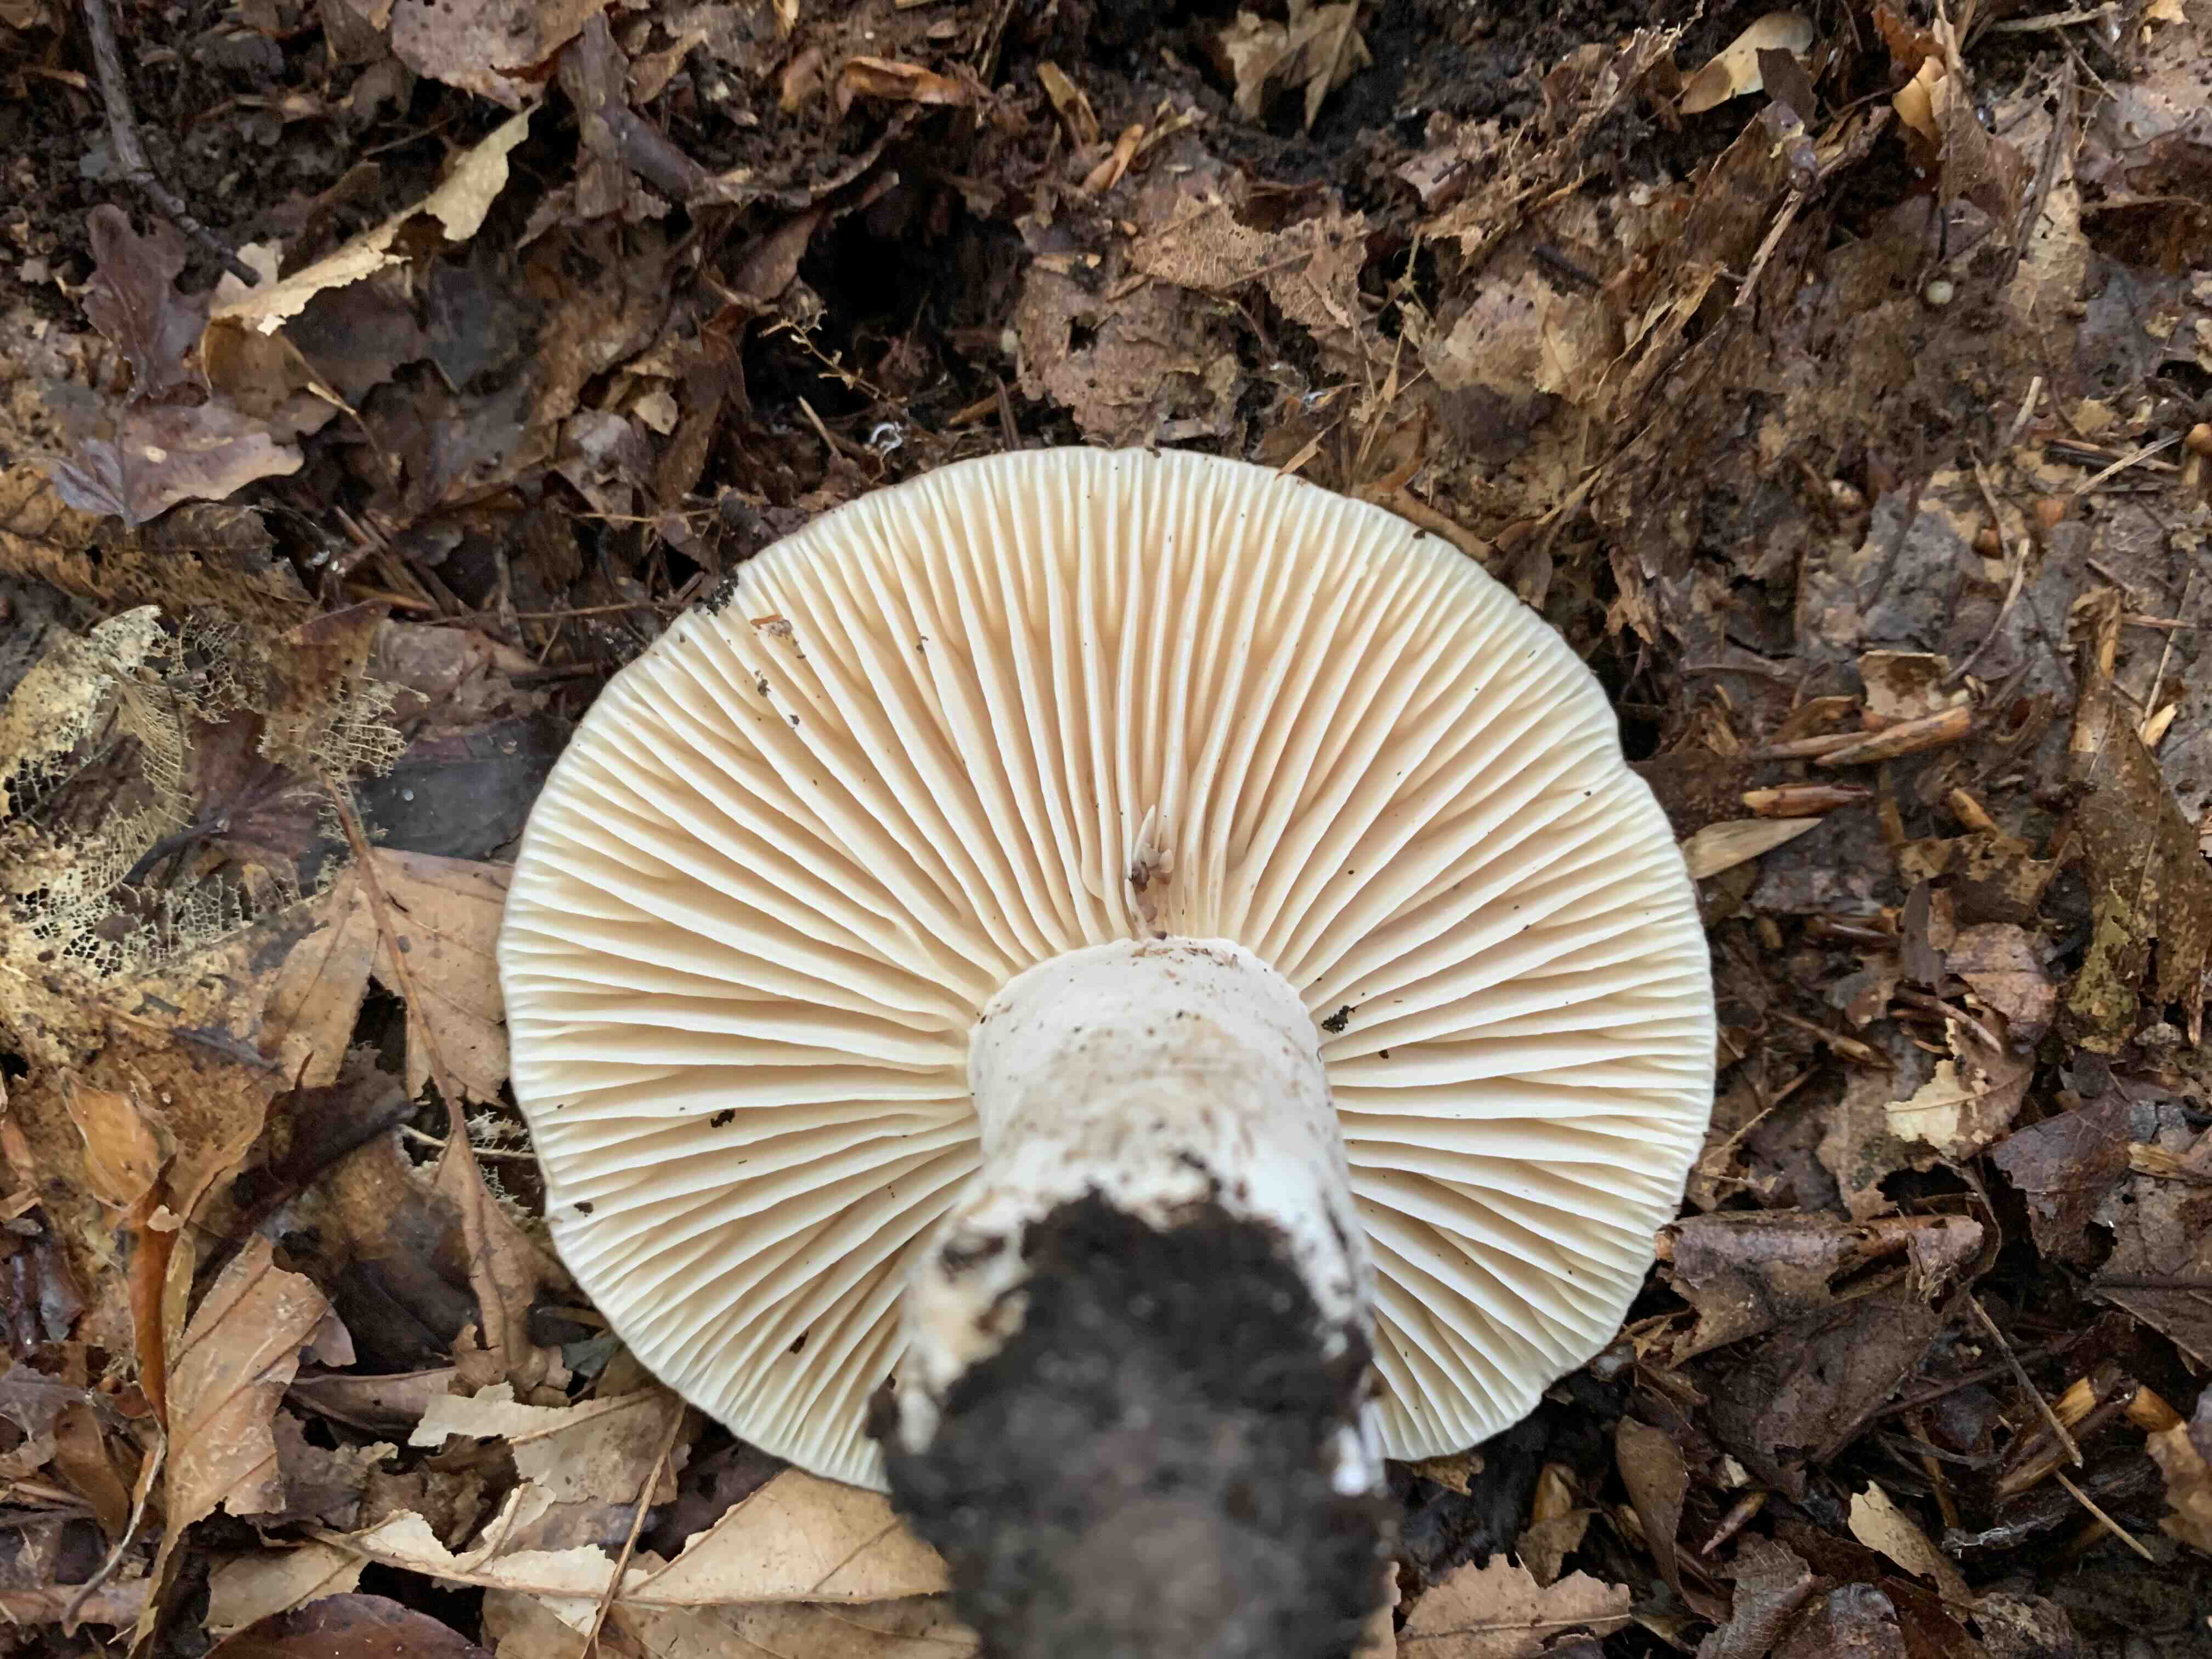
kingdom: Fungi
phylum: Basidiomycota
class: Agaricomycetes
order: Russulales
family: Russulaceae
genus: Russula
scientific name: Russula adusta
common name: sværtende skørhat
